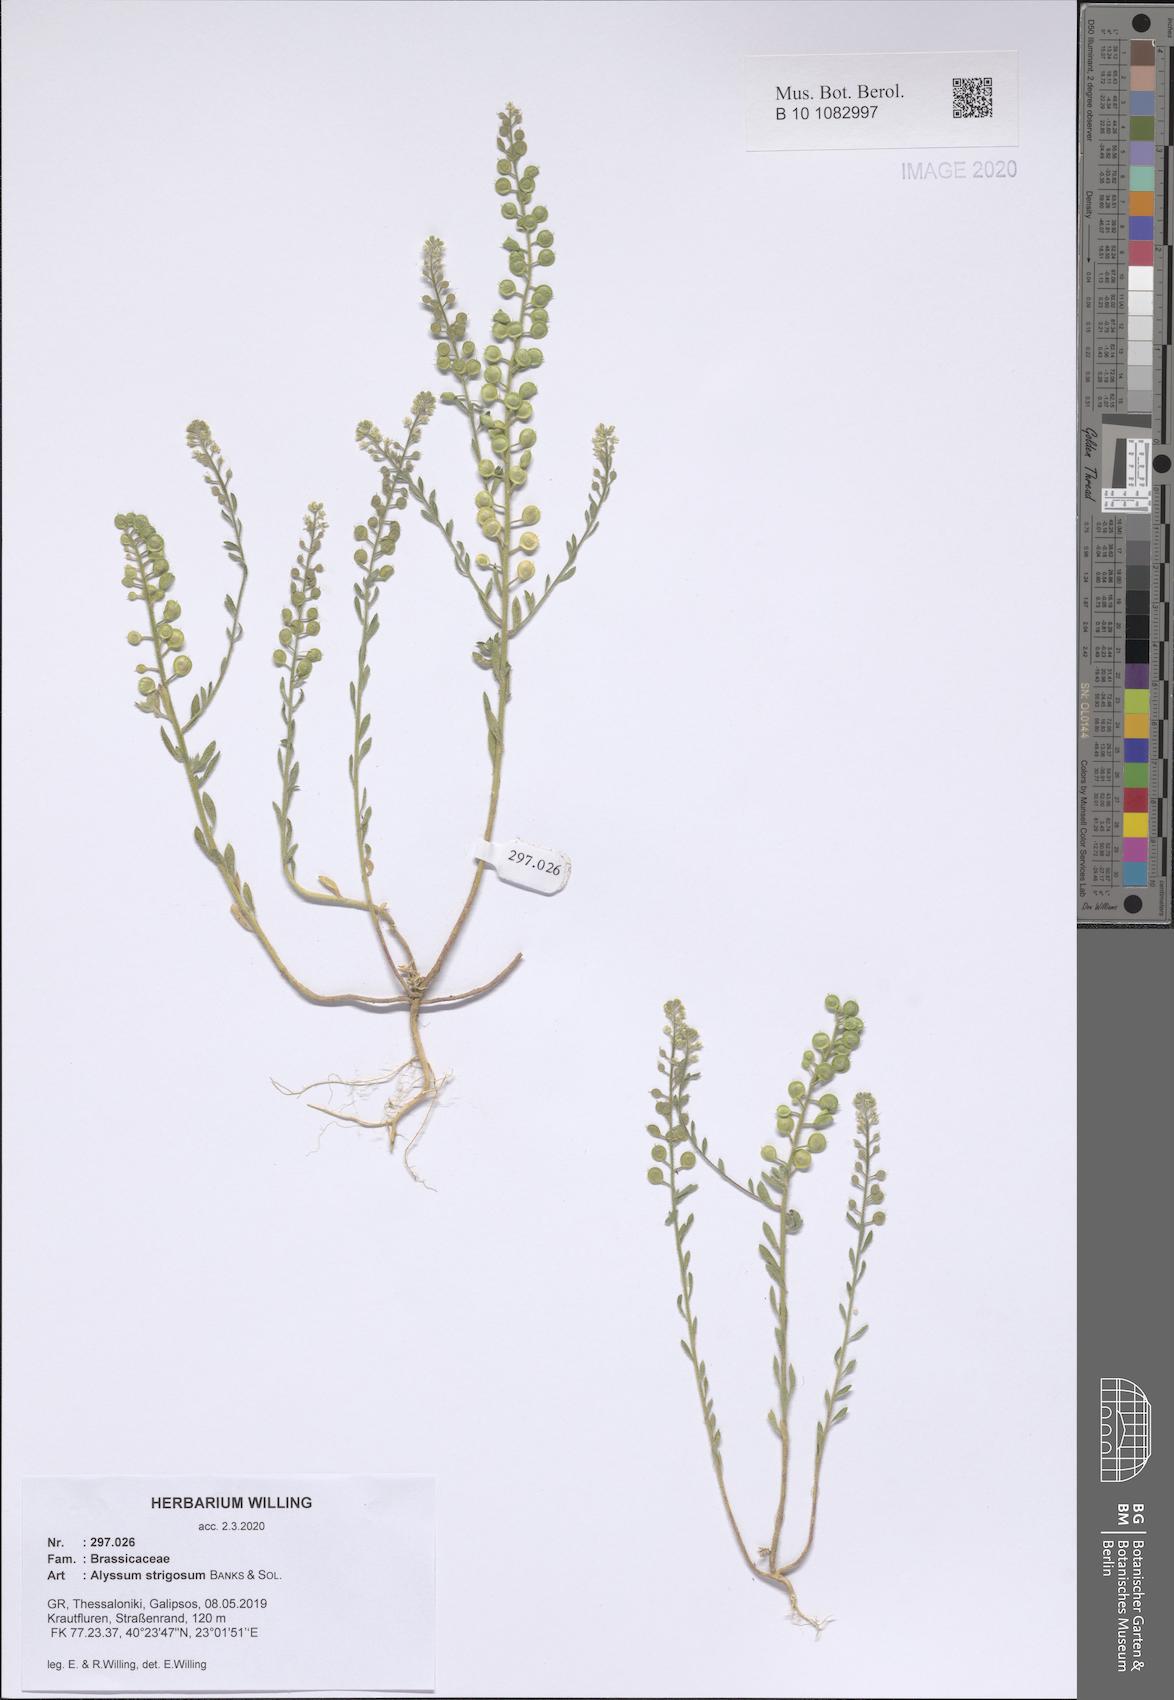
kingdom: Plantae
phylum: Tracheophyta
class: Magnoliopsida
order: Brassicales
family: Brassicaceae
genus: Alyssum
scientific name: Alyssum strigosum
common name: Alyssum
